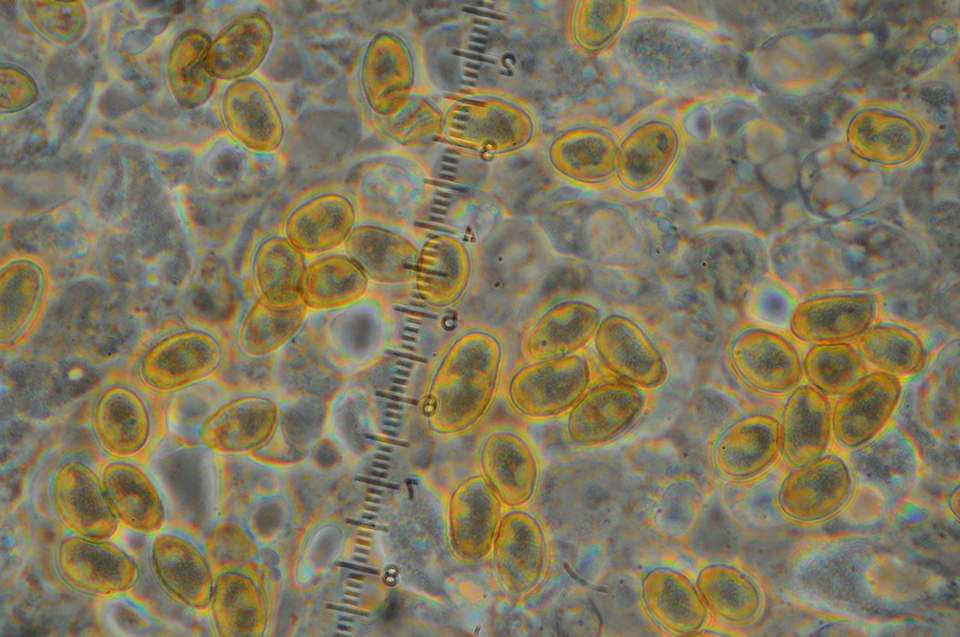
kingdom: Fungi
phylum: Basidiomycota
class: Agaricomycetes
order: Agaricales
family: Cortinariaceae
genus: Cortinarius
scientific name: Cortinarius comatus
